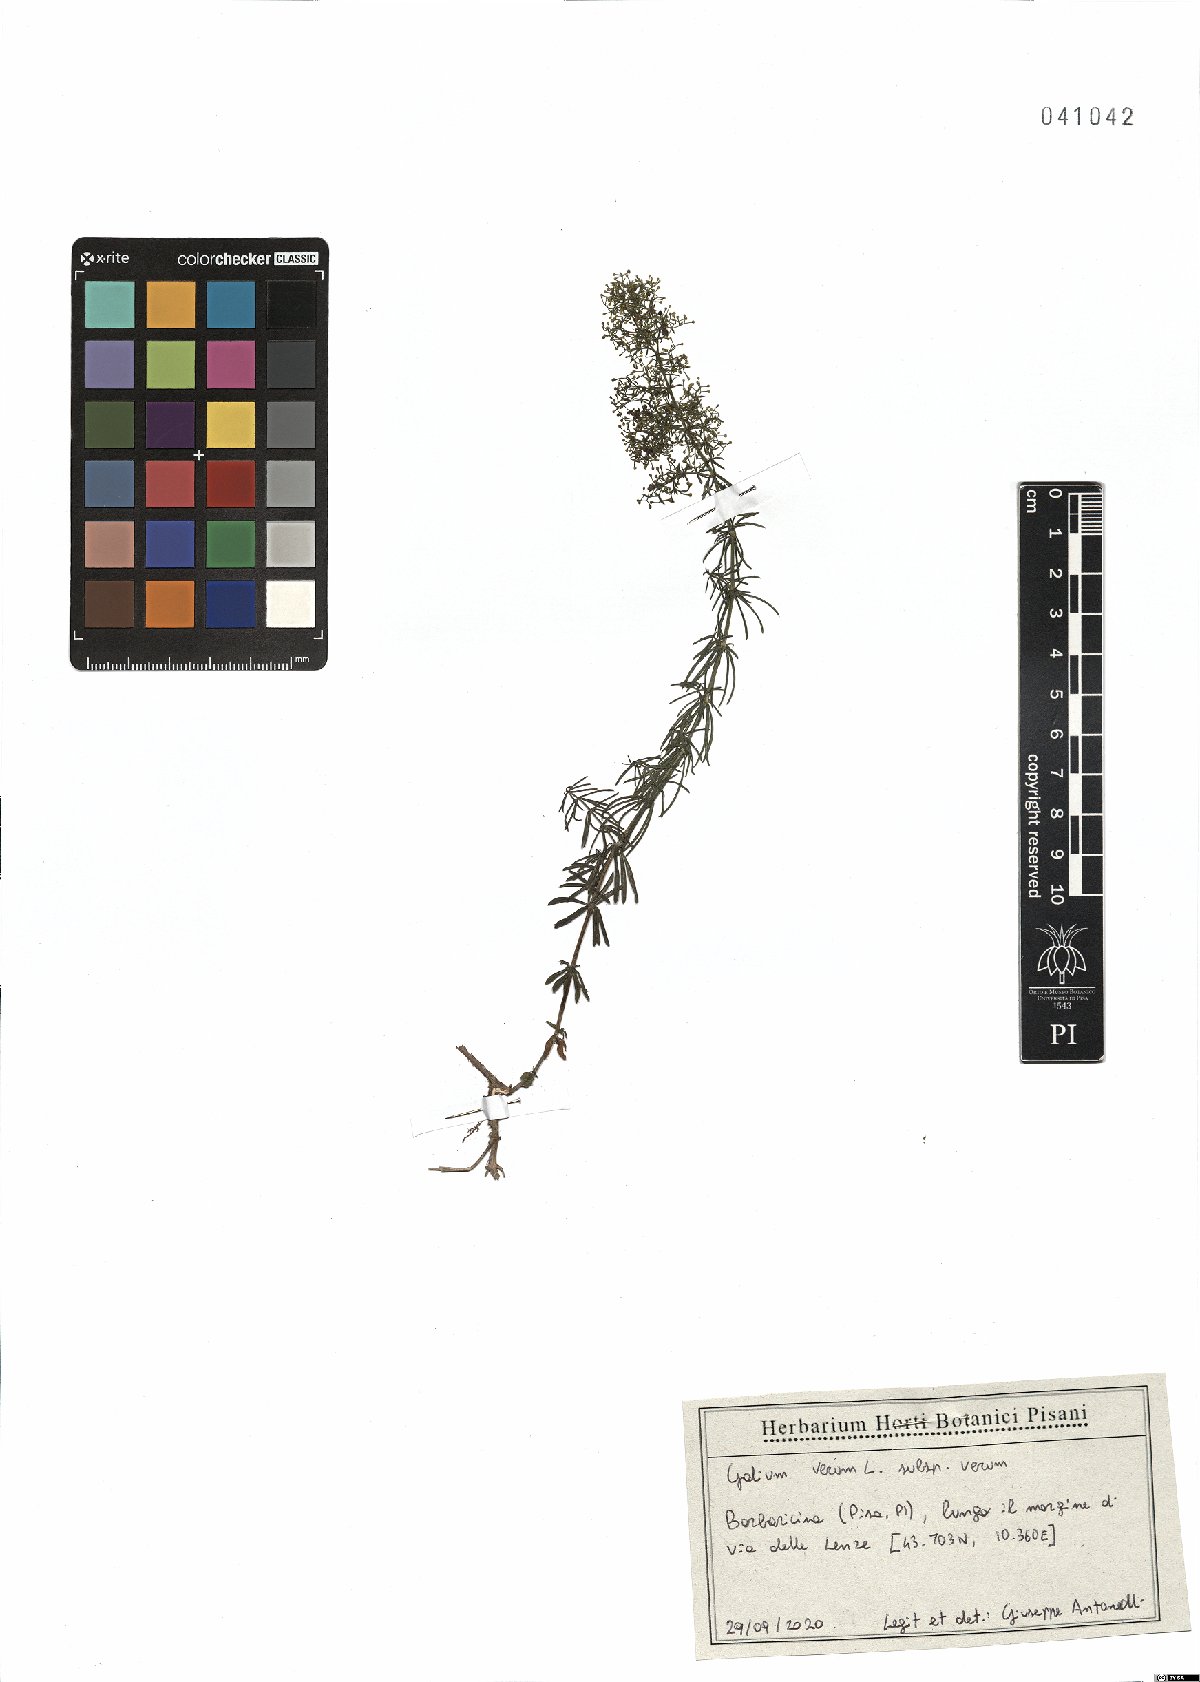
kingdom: Plantae
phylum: Tracheophyta
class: Magnoliopsida
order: Gentianales
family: Rubiaceae
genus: Galium
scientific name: Galium verum
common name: Lady's bedstraw
